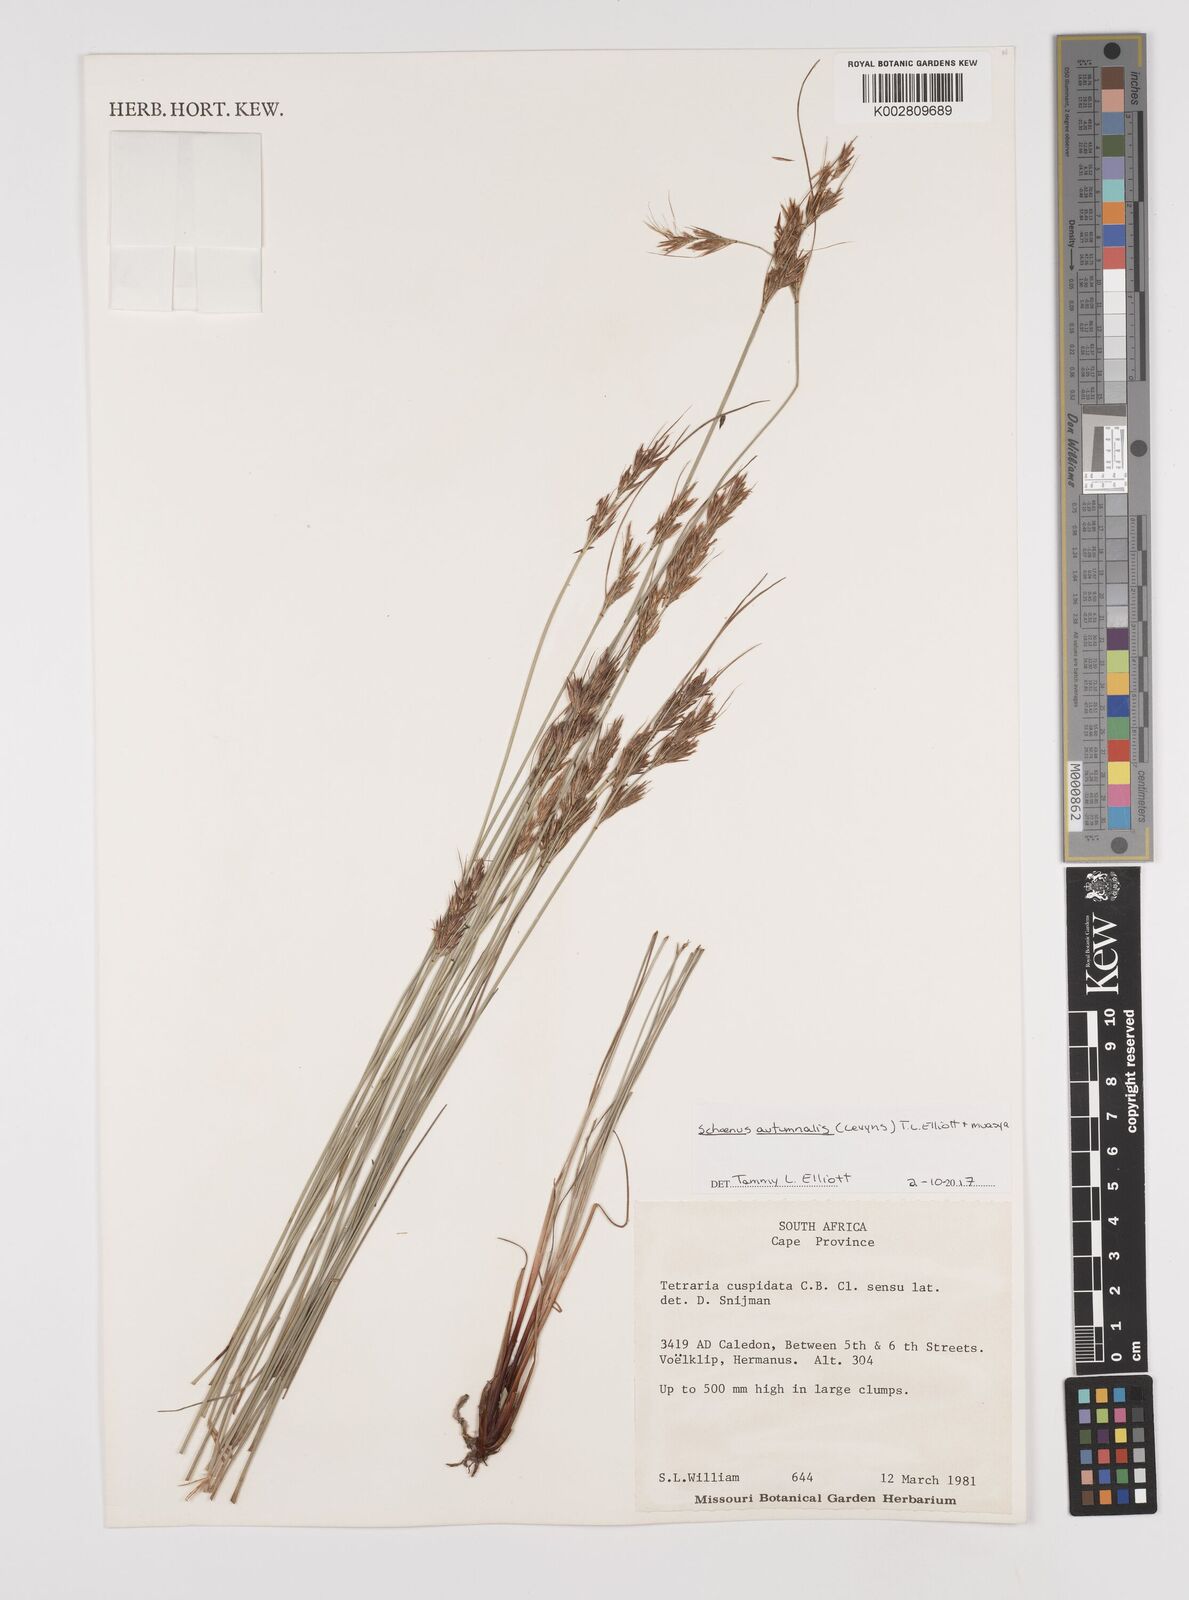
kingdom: Plantae
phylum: Tracheophyta
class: Liliopsida
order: Poales
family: Cyperaceae
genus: Schoenus
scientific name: Schoenus ligulatus
